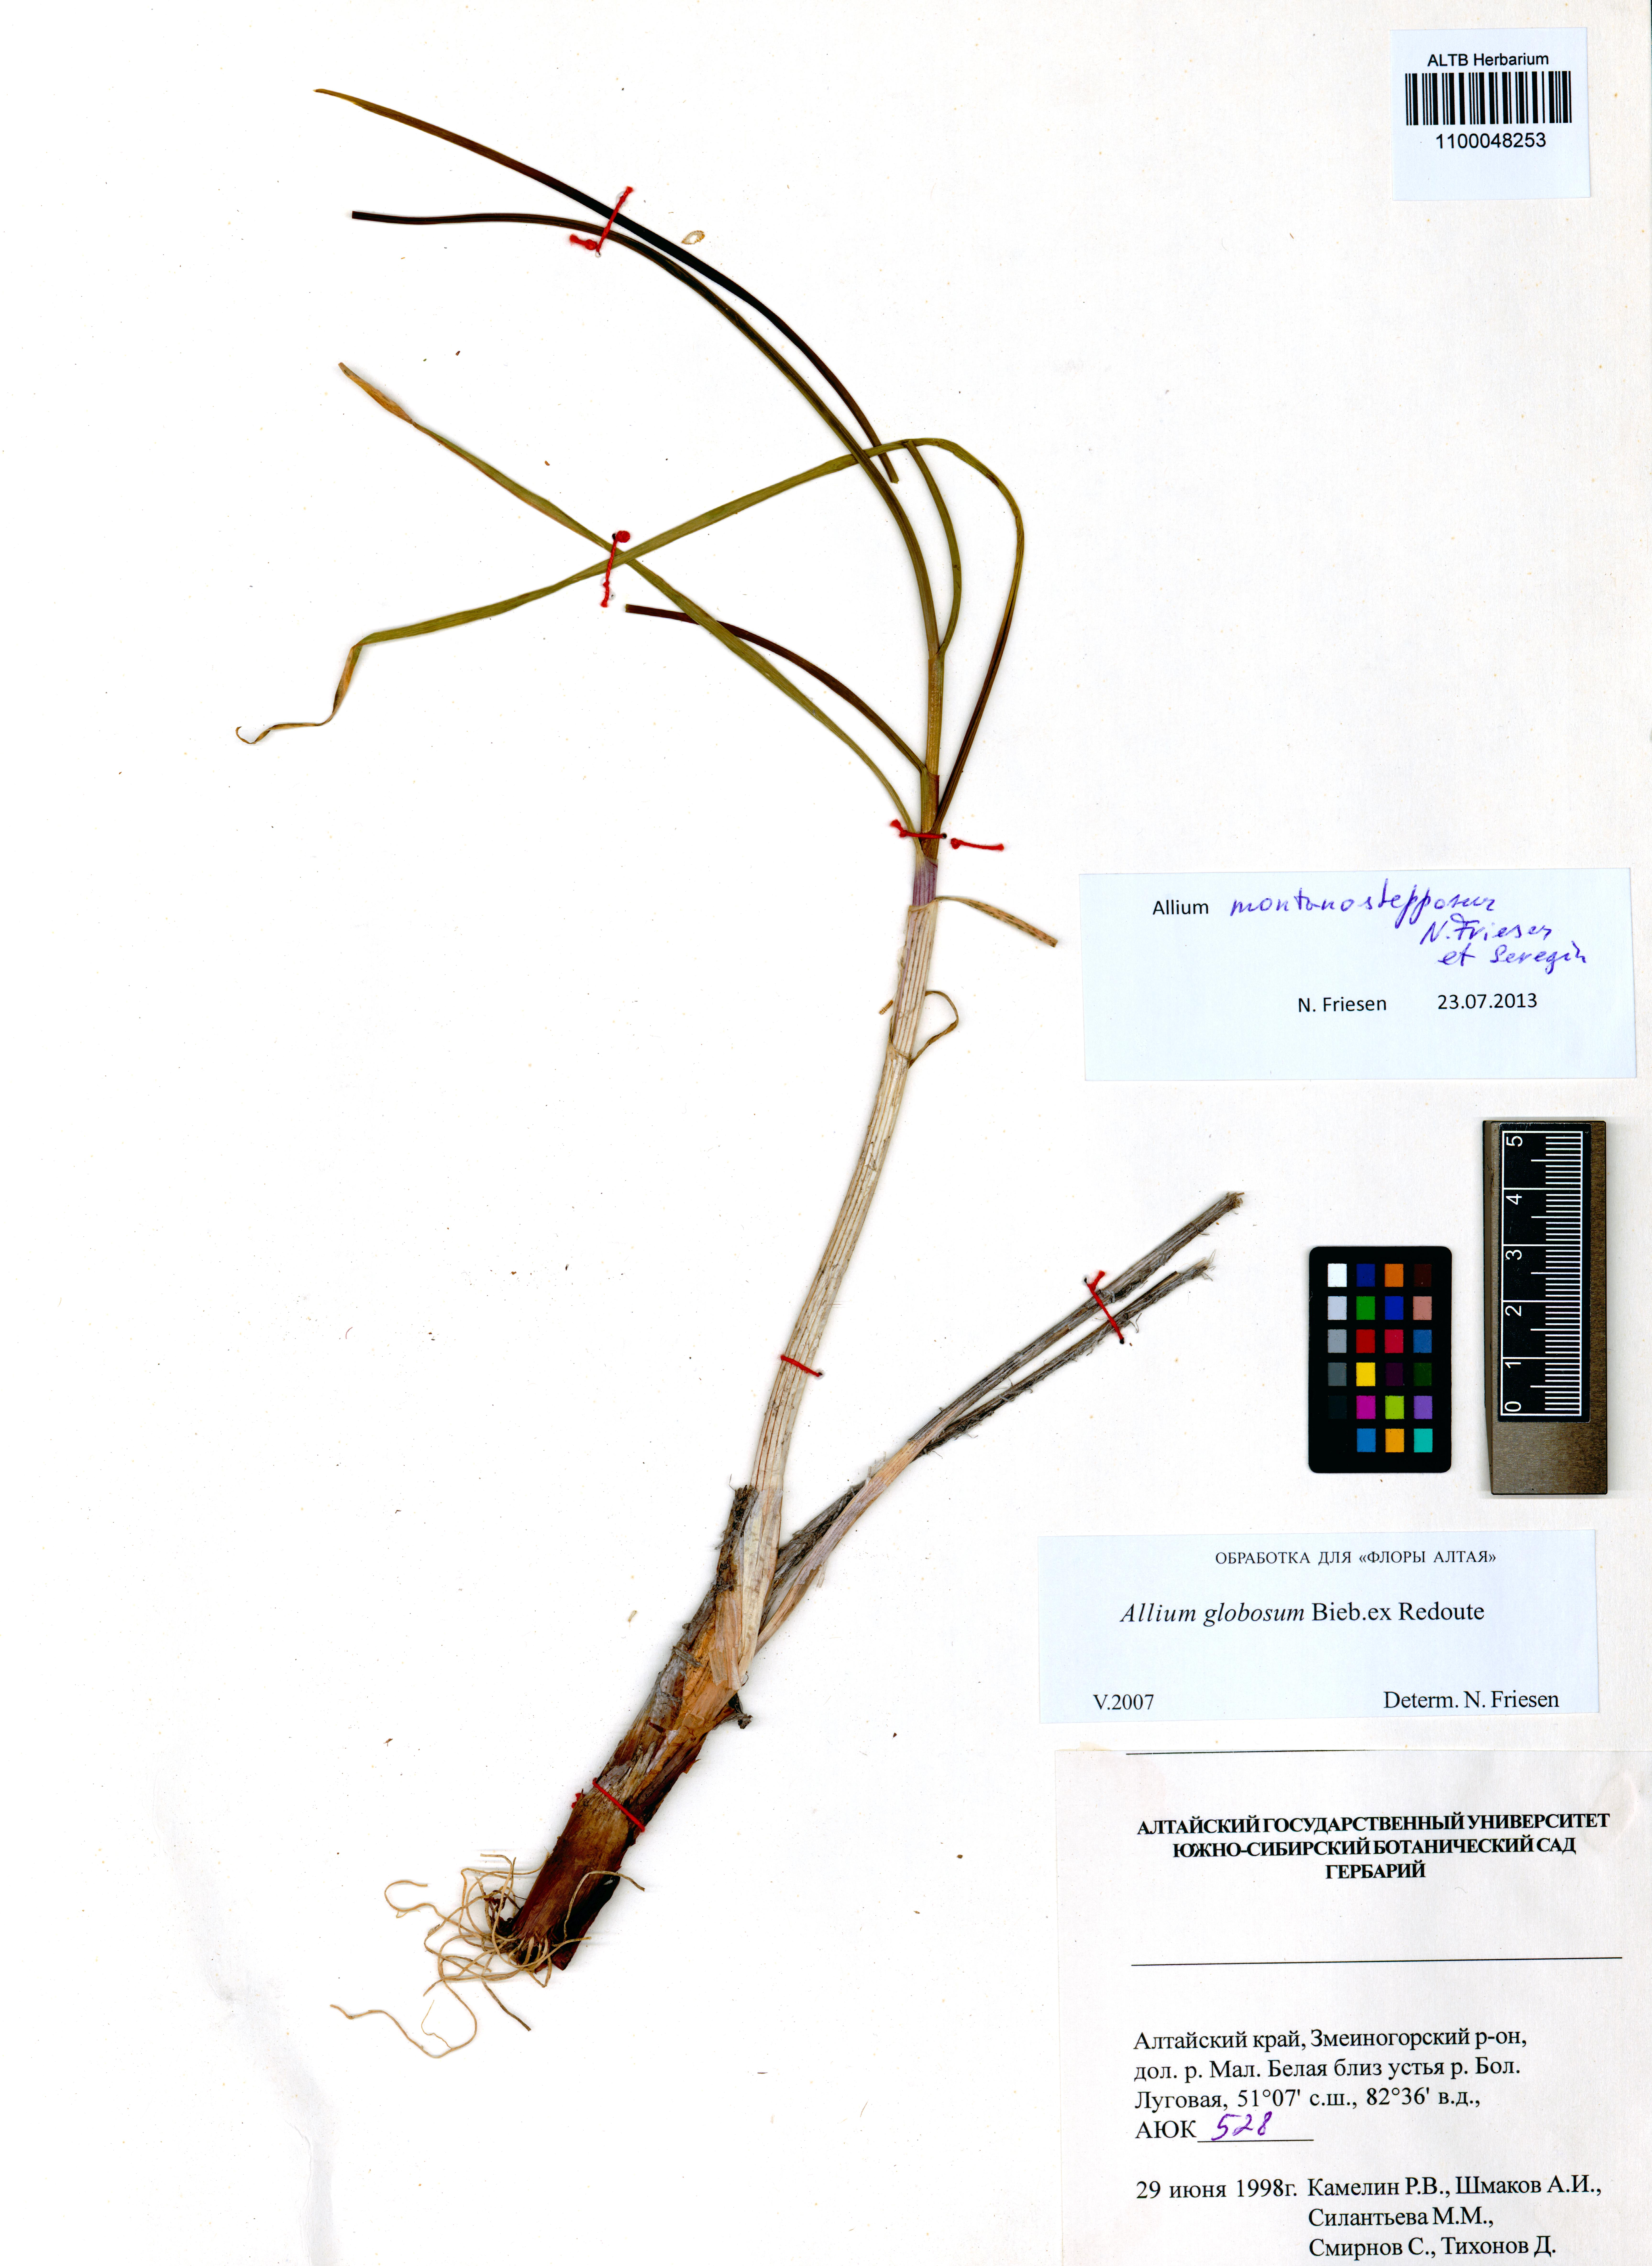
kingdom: Plantae
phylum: Tracheophyta
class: Liliopsida
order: Asparagales
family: Amaryllidaceae
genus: Allium
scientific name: Allium montanostepposum
